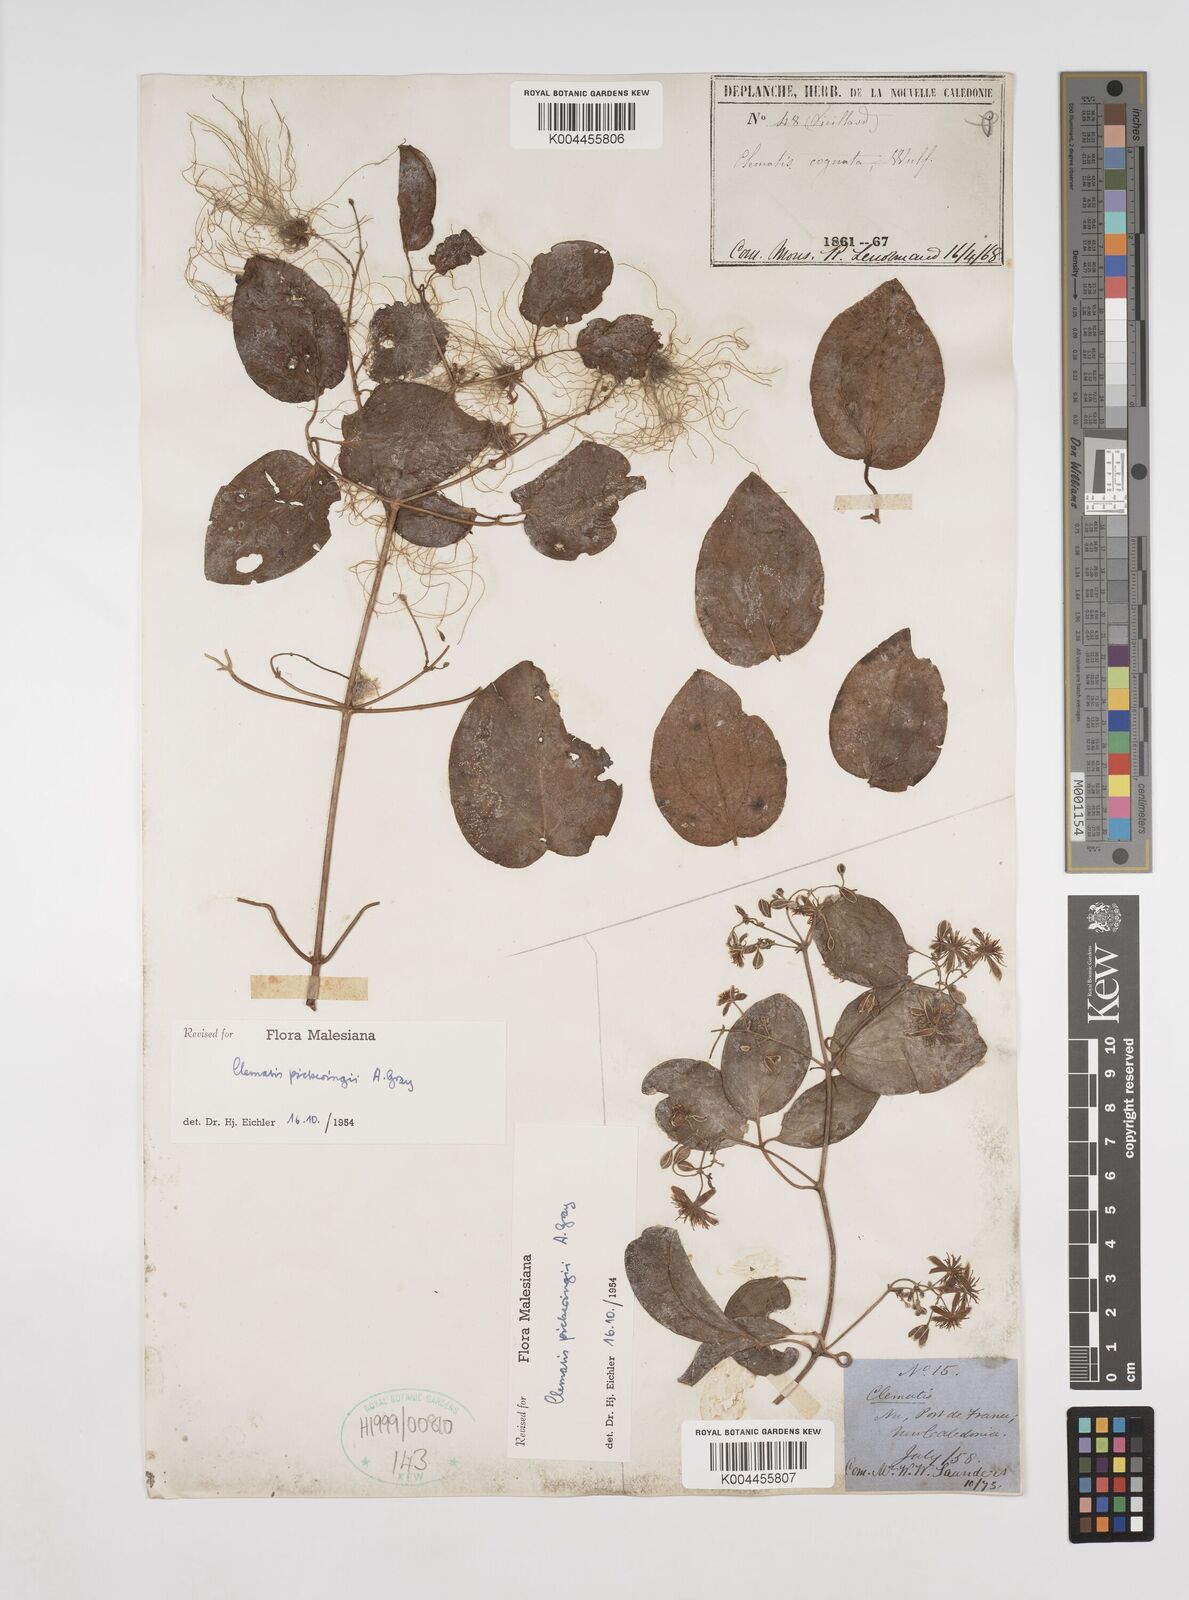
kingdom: Plantae
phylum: Tracheophyta
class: Magnoliopsida
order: Ranunculales
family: Ranunculaceae
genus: Clematis
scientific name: Clematis pickeringii
